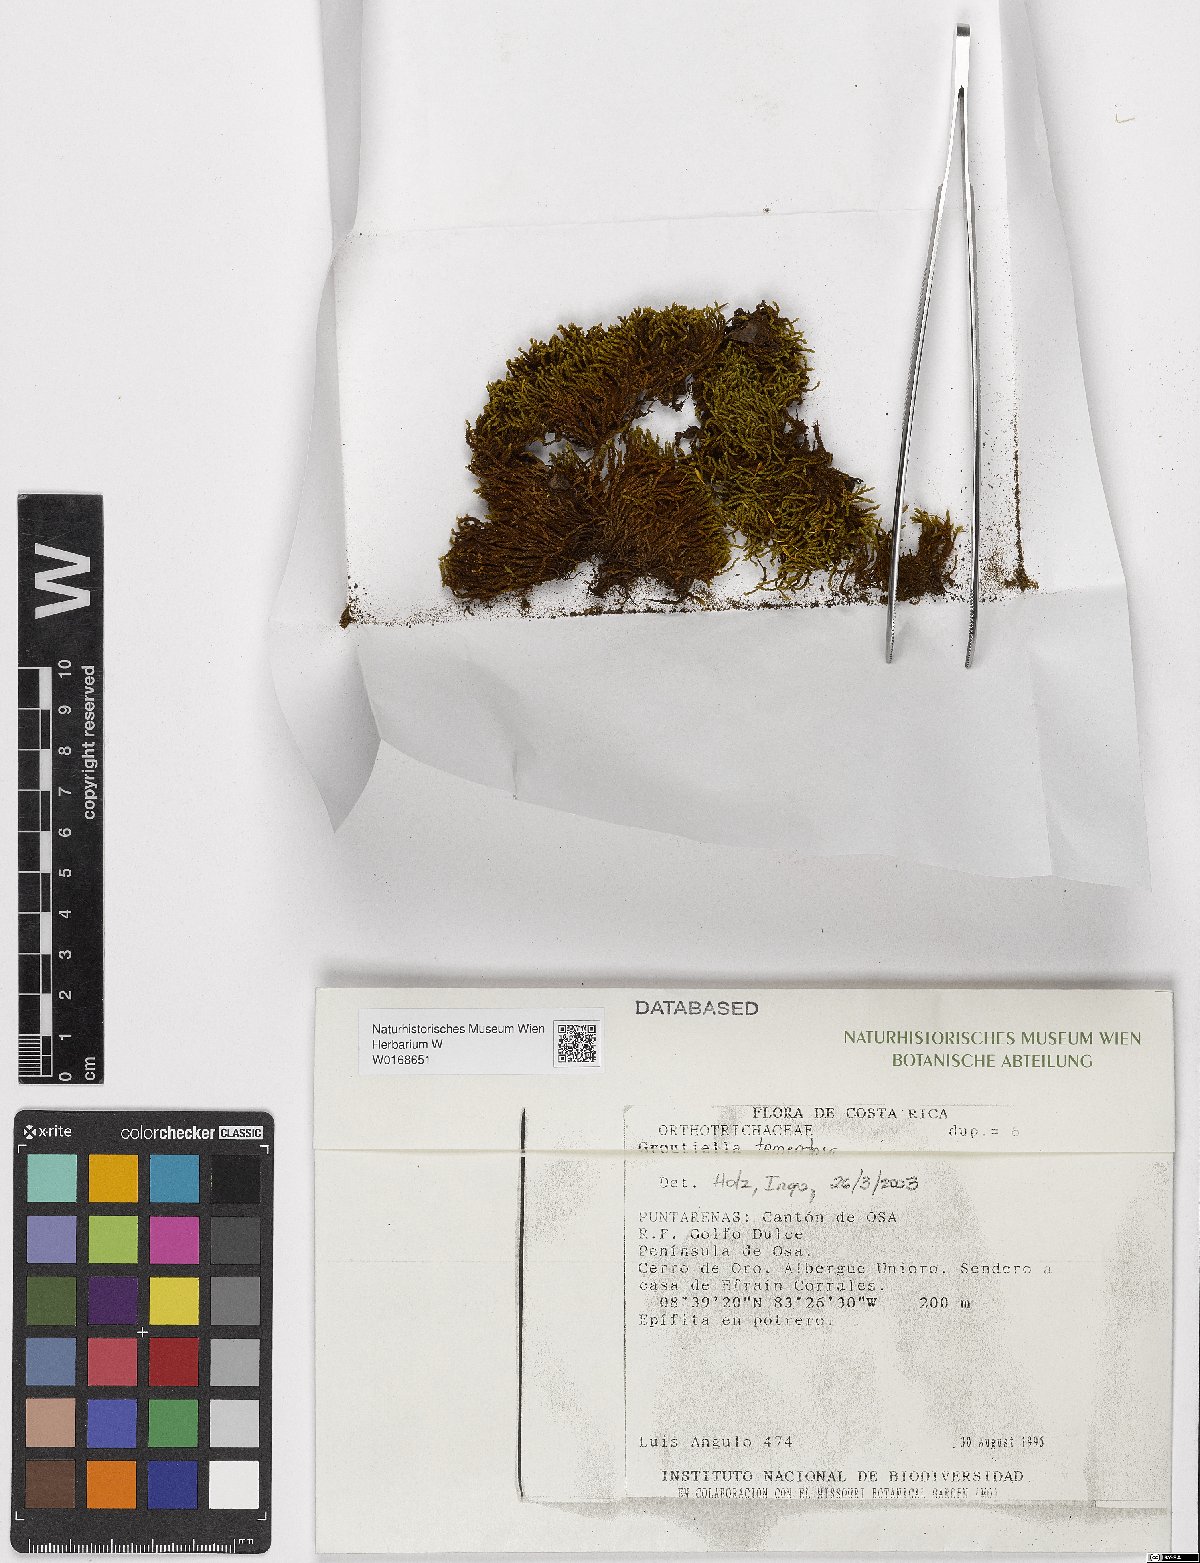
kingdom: Plantae
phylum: Bryophyta
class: Bryopsida
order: Orthotrichales
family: Orthotrichaceae
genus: Groutiella
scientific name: Groutiella tomentosa
